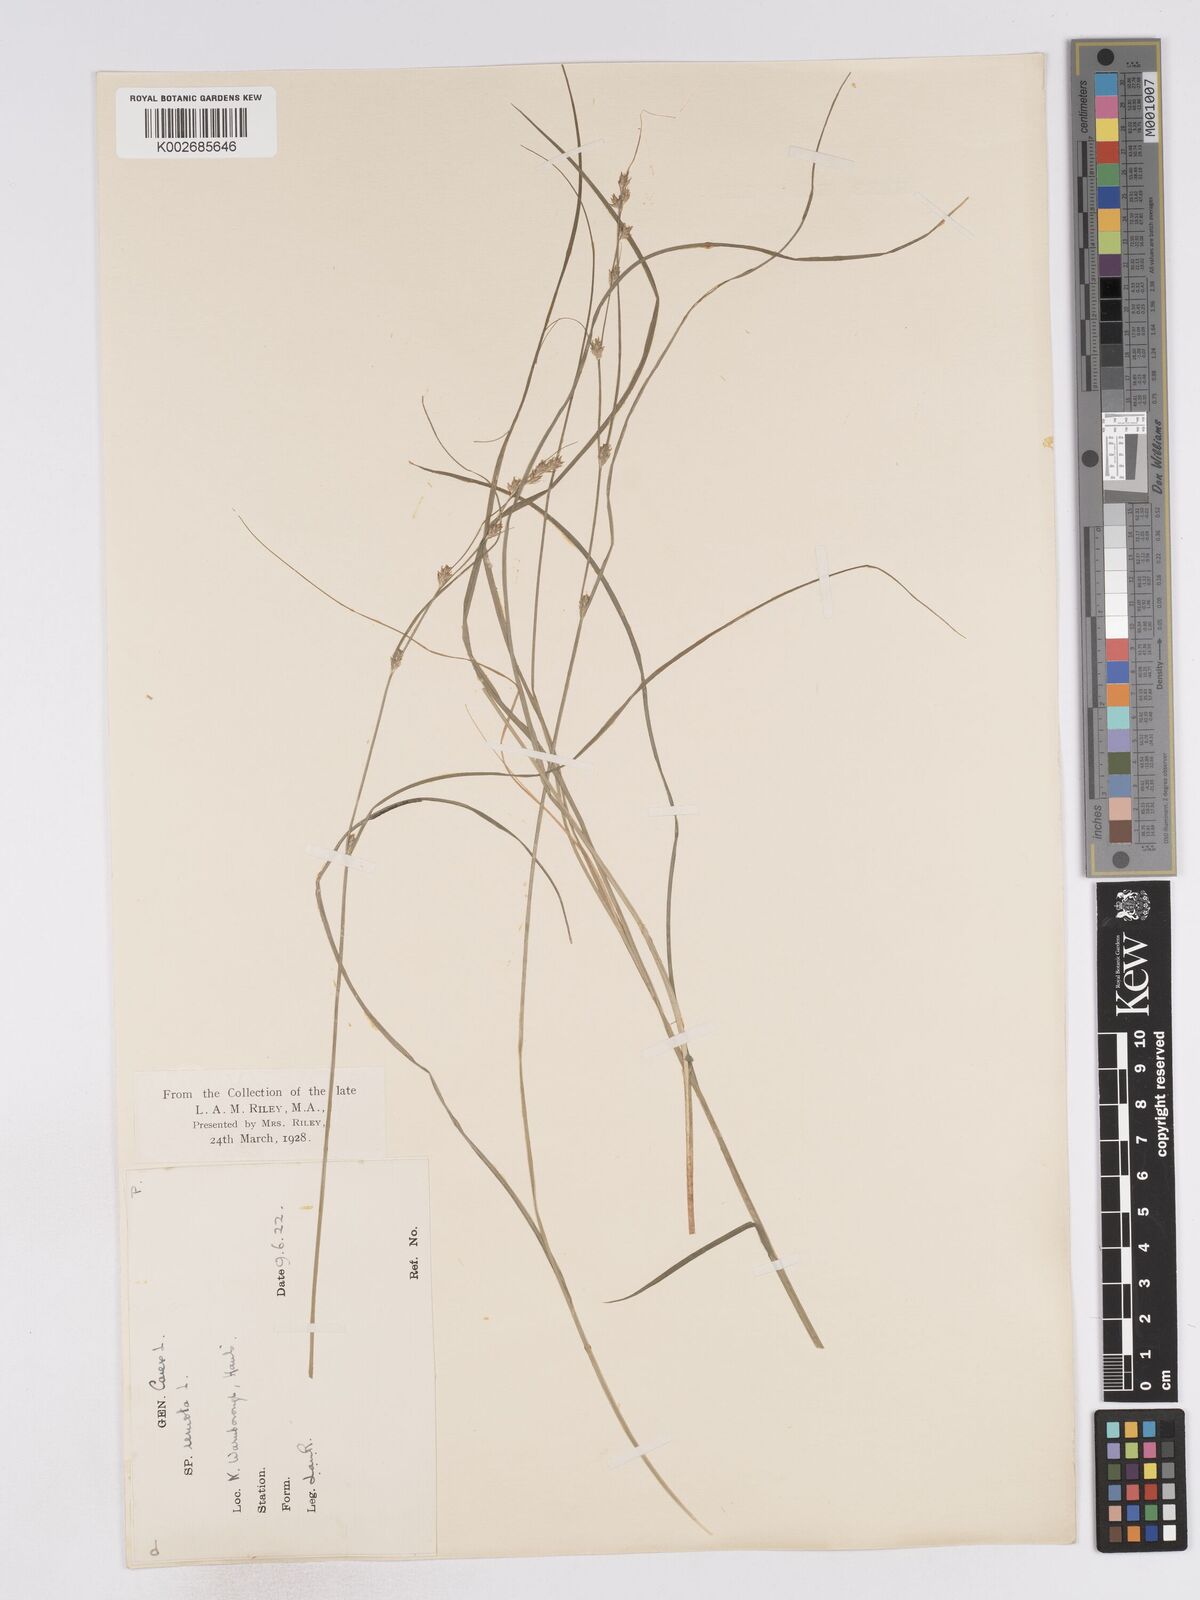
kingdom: Plantae
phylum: Tracheophyta
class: Liliopsida
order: Poales
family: Cyperaceae
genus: Carex
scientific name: Carex remota
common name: Remote sedge
